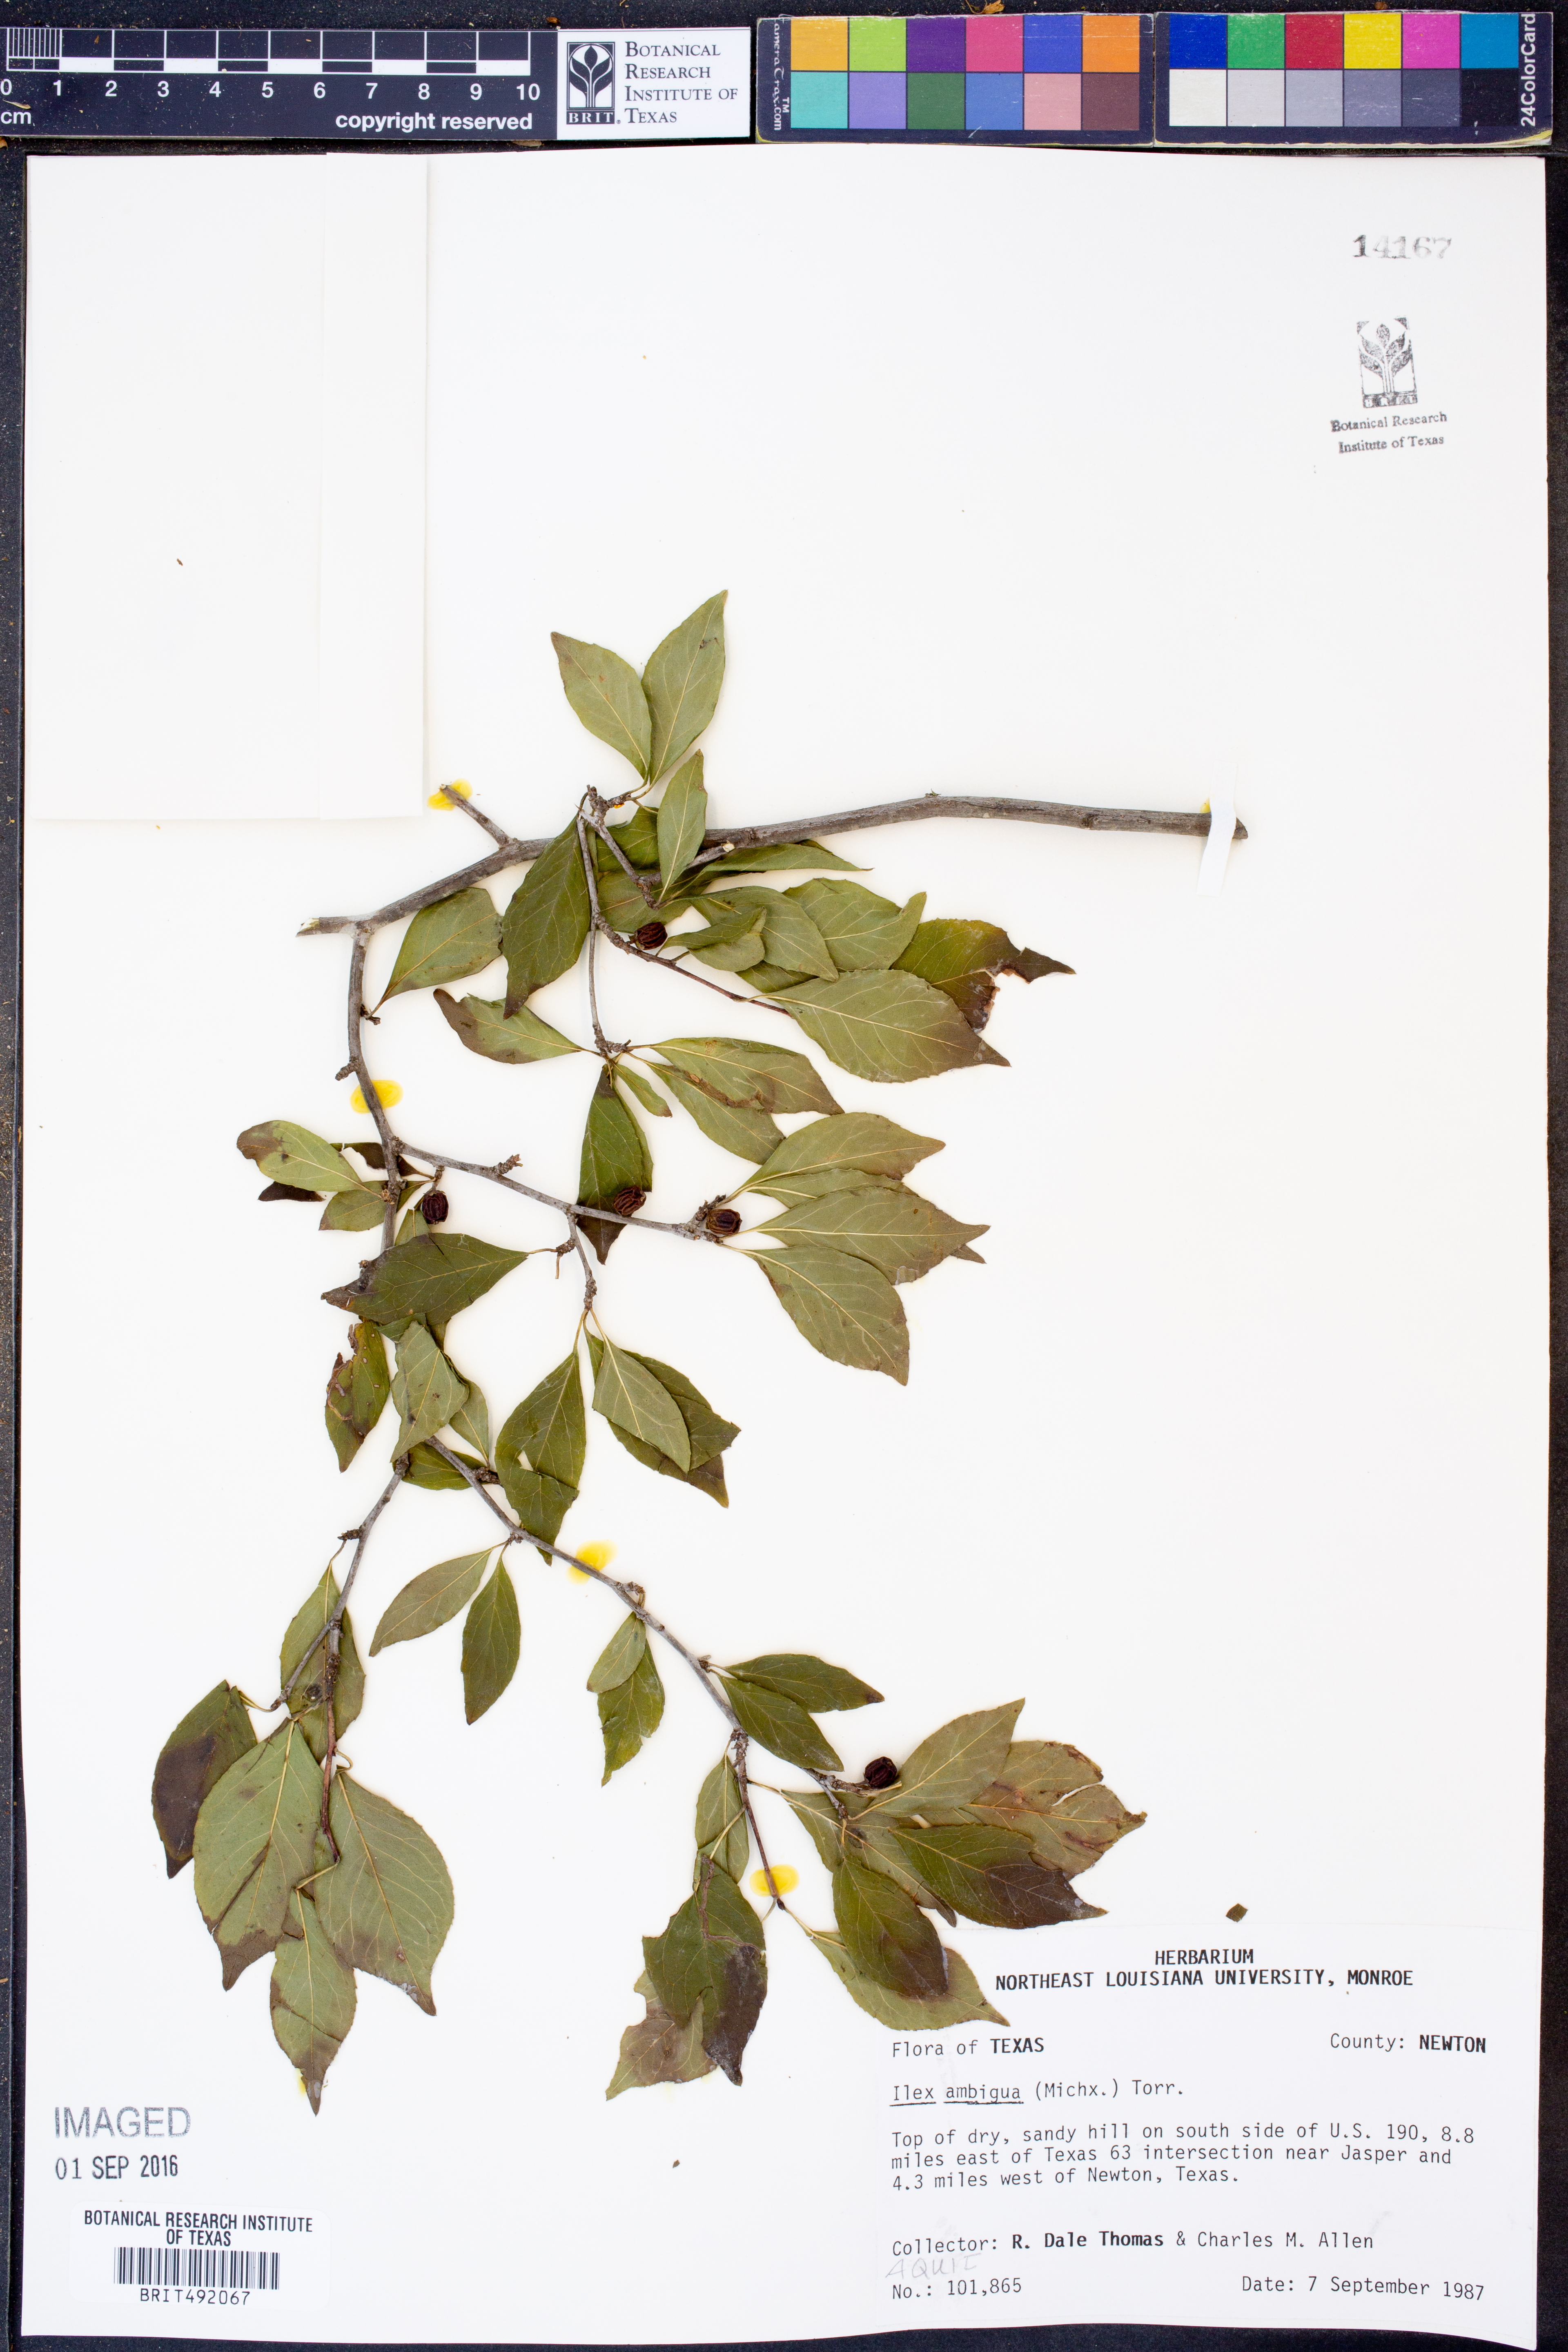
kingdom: Plantae
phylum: Tracheophyta
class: Magnoliopsida
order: Aquifoliales
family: Aquifoliaceae
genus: Ilex
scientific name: Ilex ambigua
